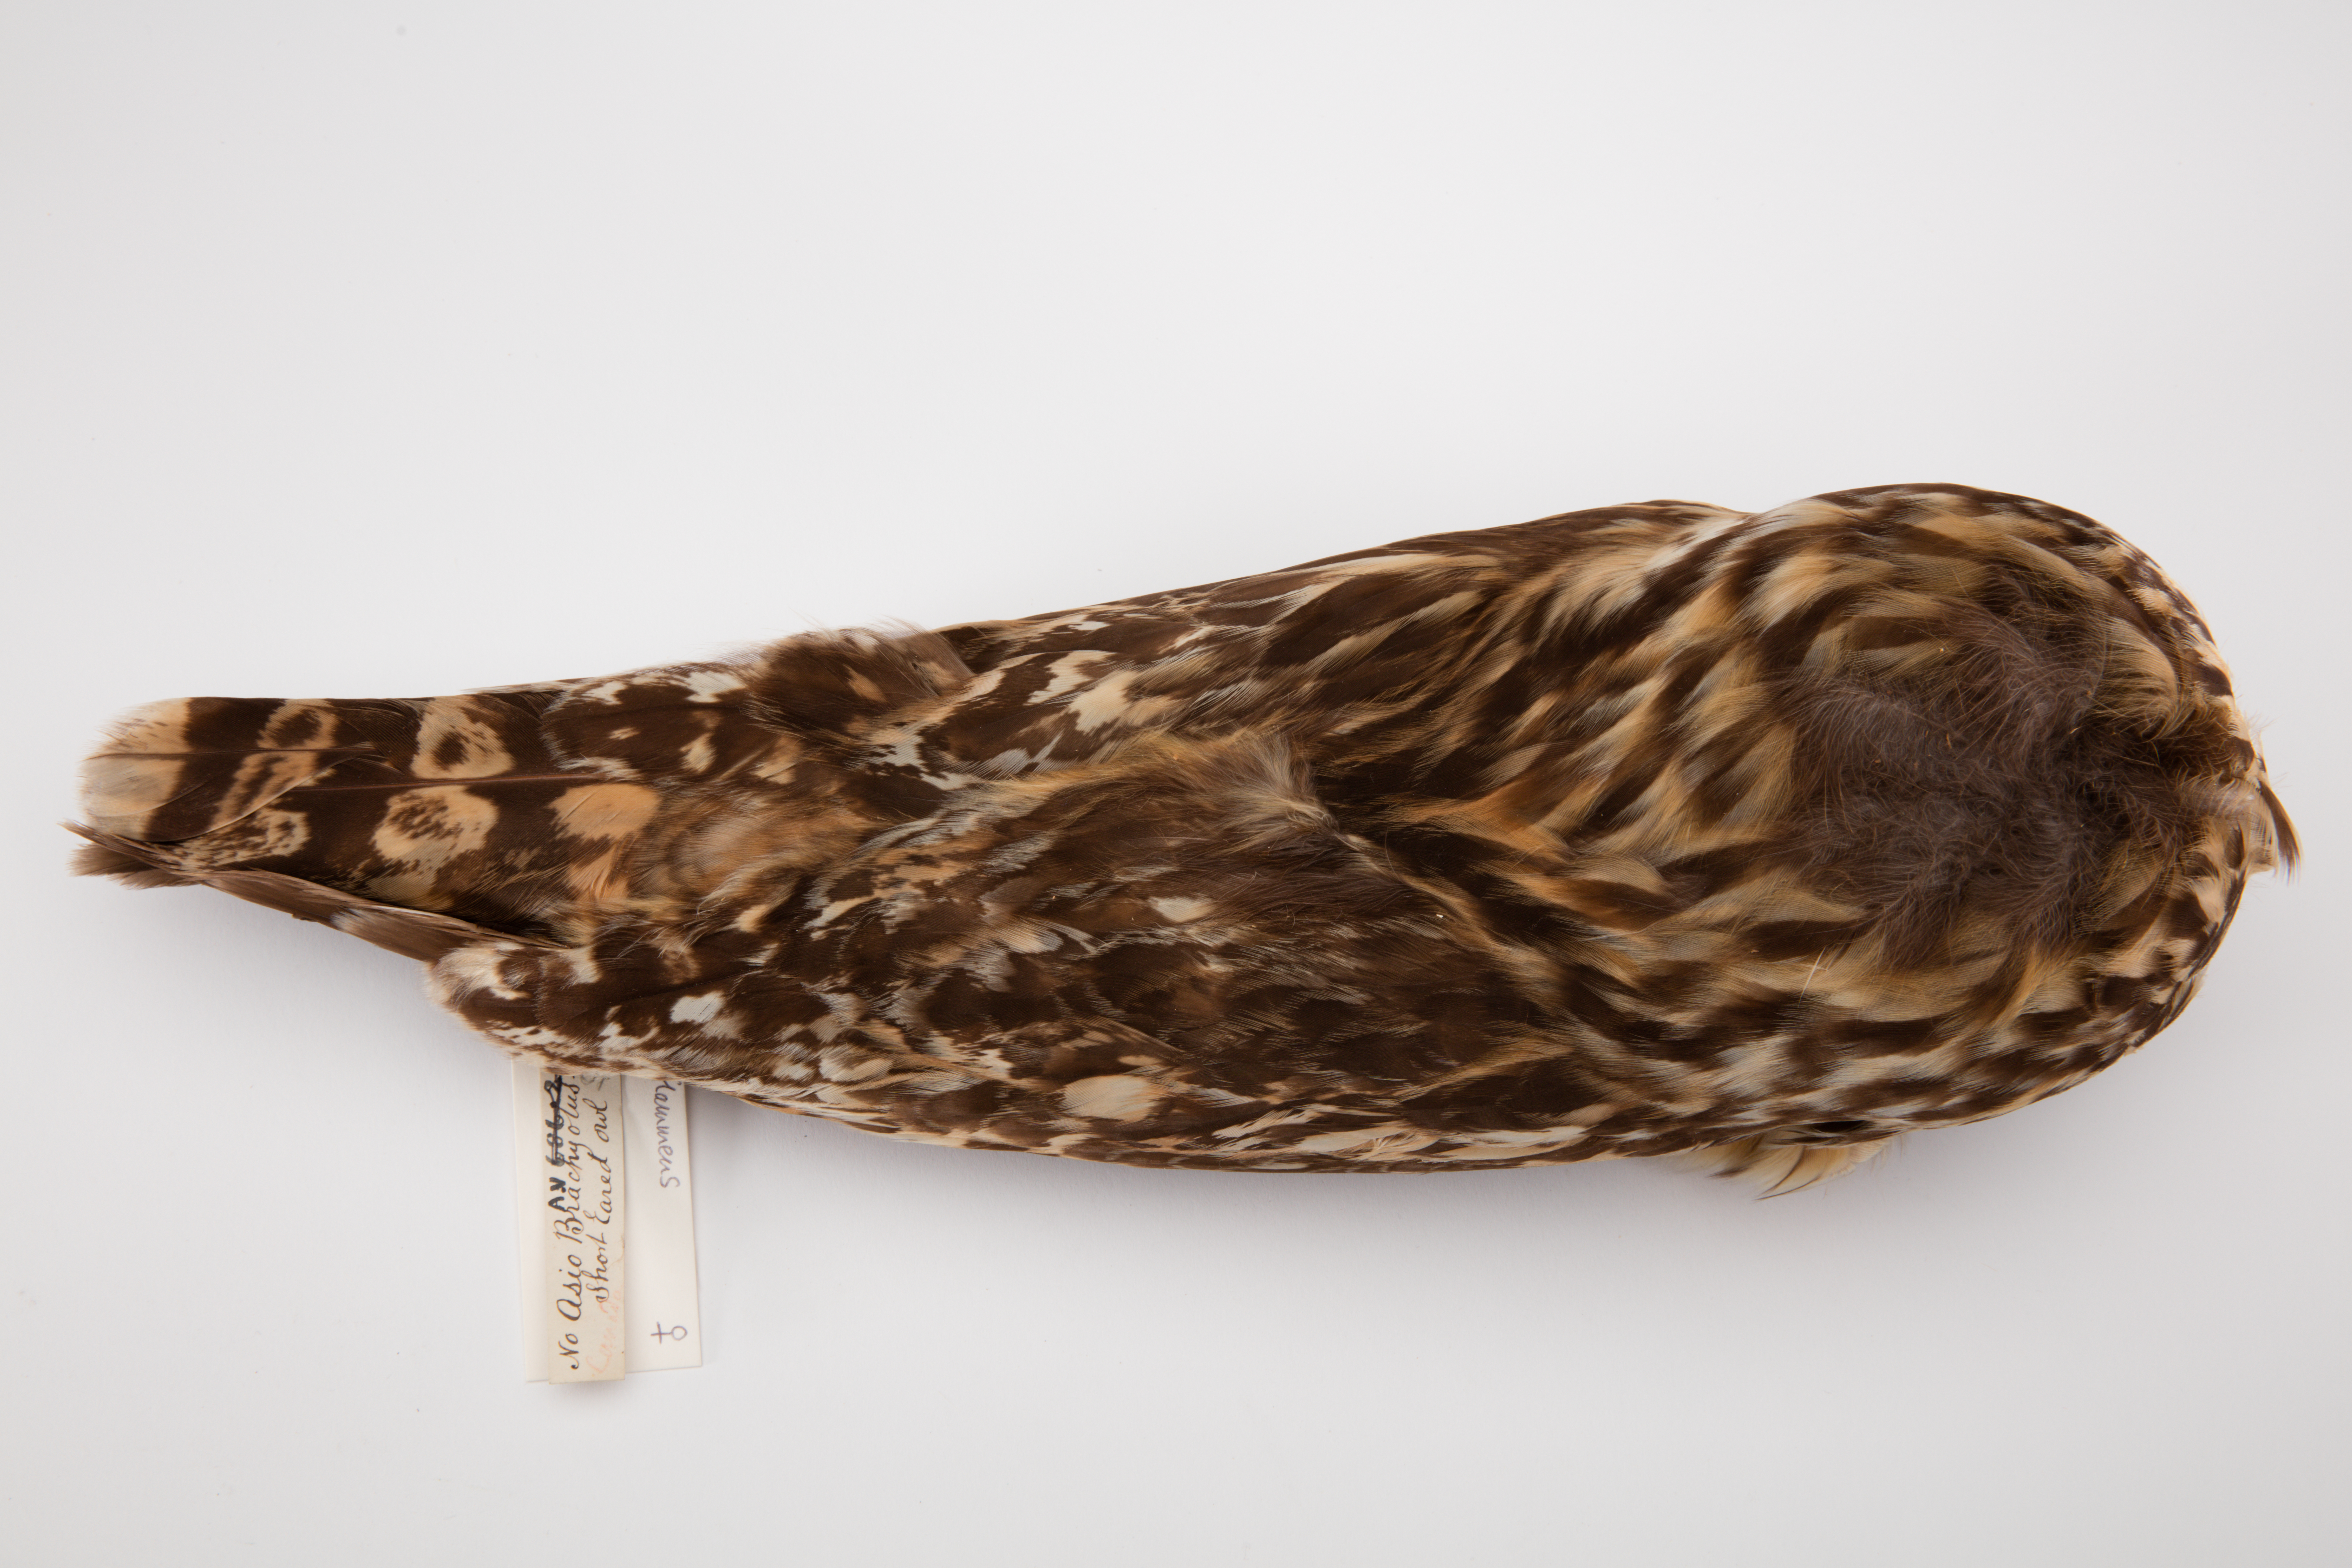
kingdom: Animalia
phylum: Chordata
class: Aves
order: Strigiformes
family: Strigidae
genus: Asio
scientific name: Asio flammeus
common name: Short-eared owl
